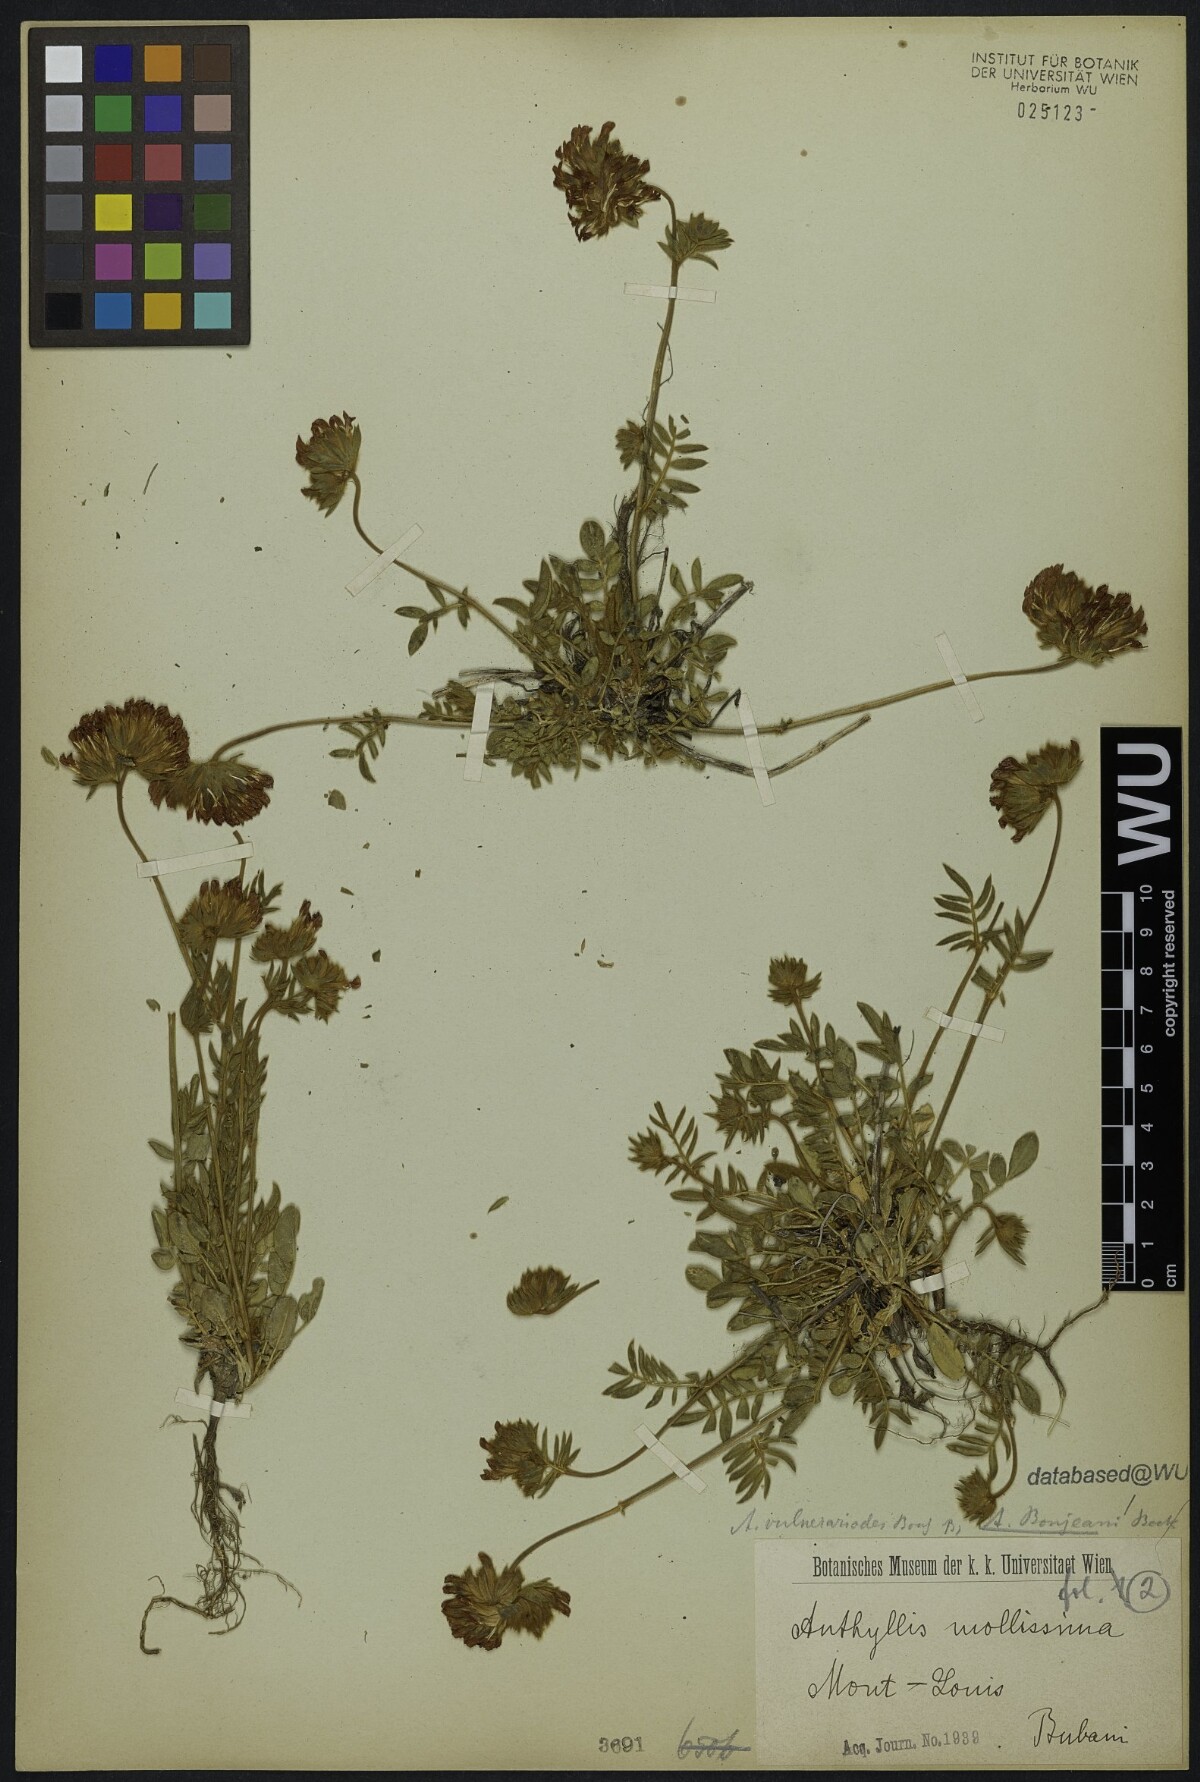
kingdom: Plantae
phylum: Tracheophyta
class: Magnoliopsida
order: Fabales
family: Fabaceae
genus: Anthyllis
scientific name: Anthyllis vulneraria
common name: Kidney vetch
